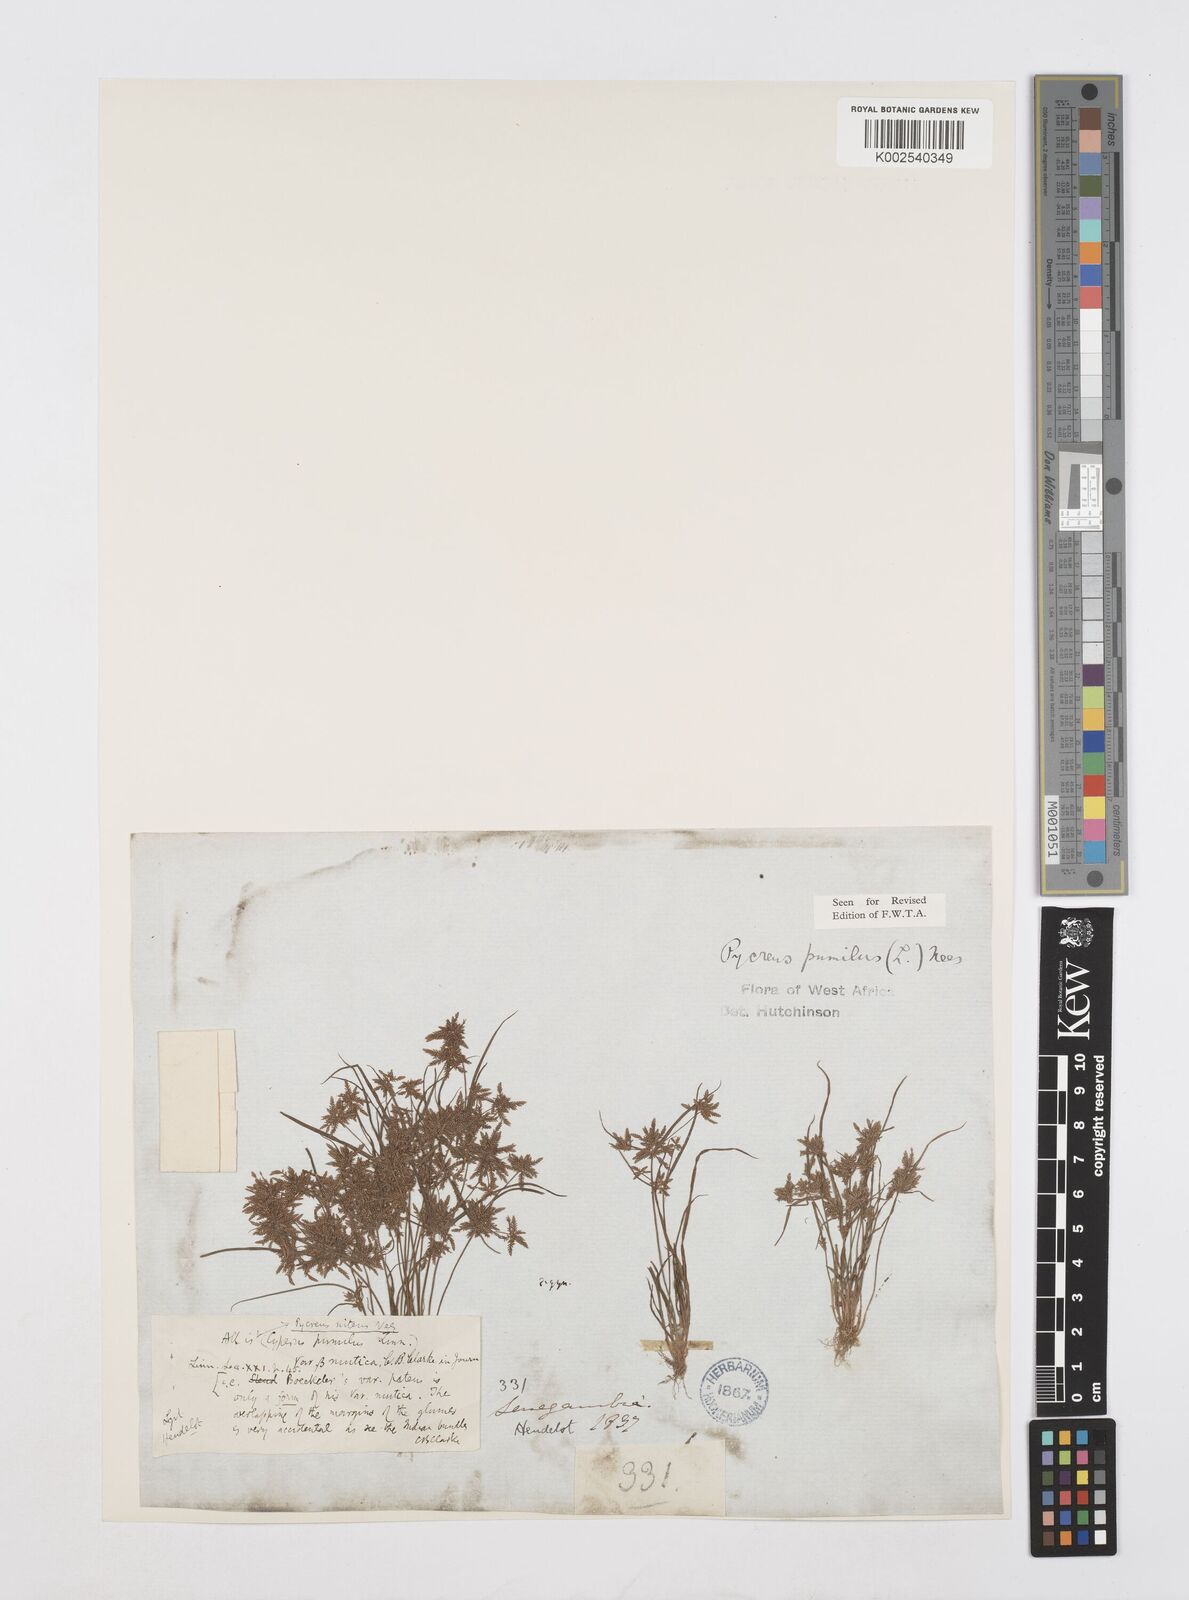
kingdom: Plantae
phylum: Tracheophyta
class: Liliopsida
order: Poales
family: Cyperaceae
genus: Cyperus
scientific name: Cyperus pumilus
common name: Low flatsedge
